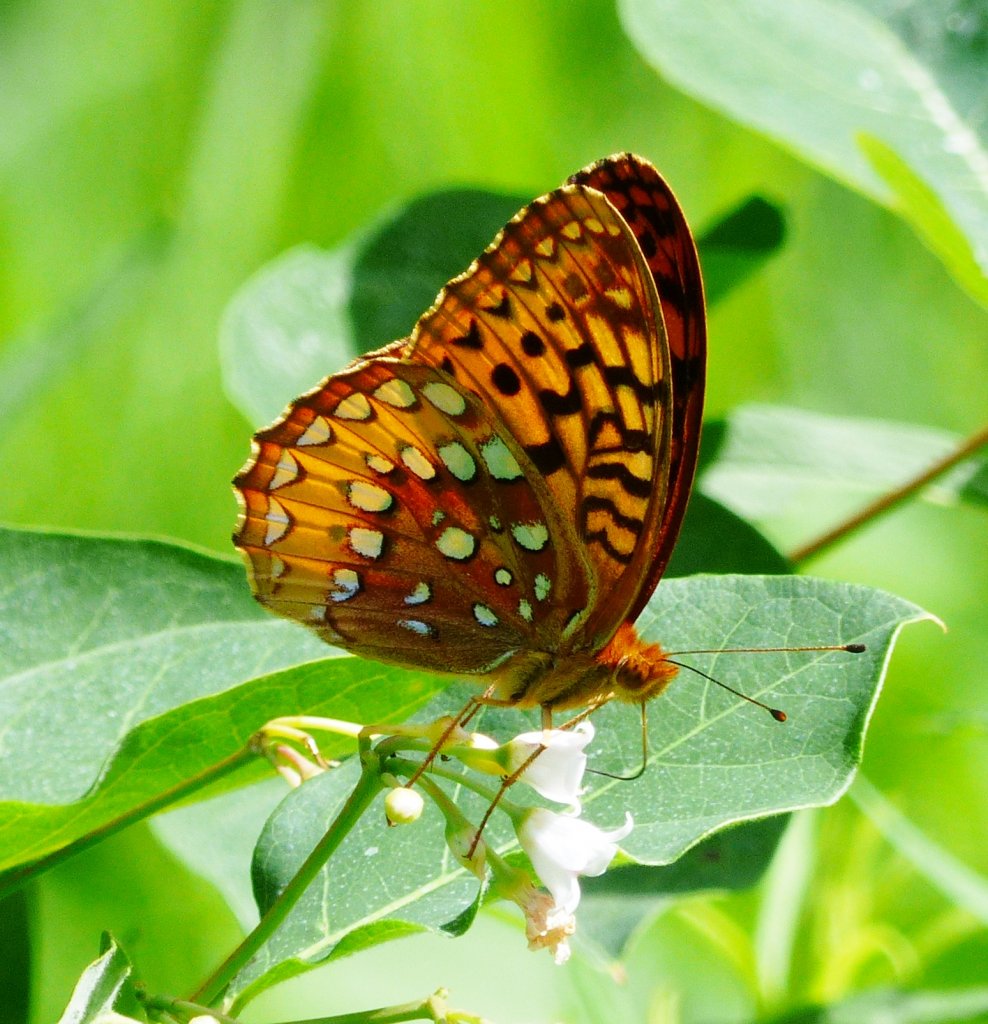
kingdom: Animalia
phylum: Arthropoda
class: Insecta
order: Lepidoptera
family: Nymphalidae
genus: Speyeria
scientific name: Speyeria cybele
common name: Great Spangled Fritillary
